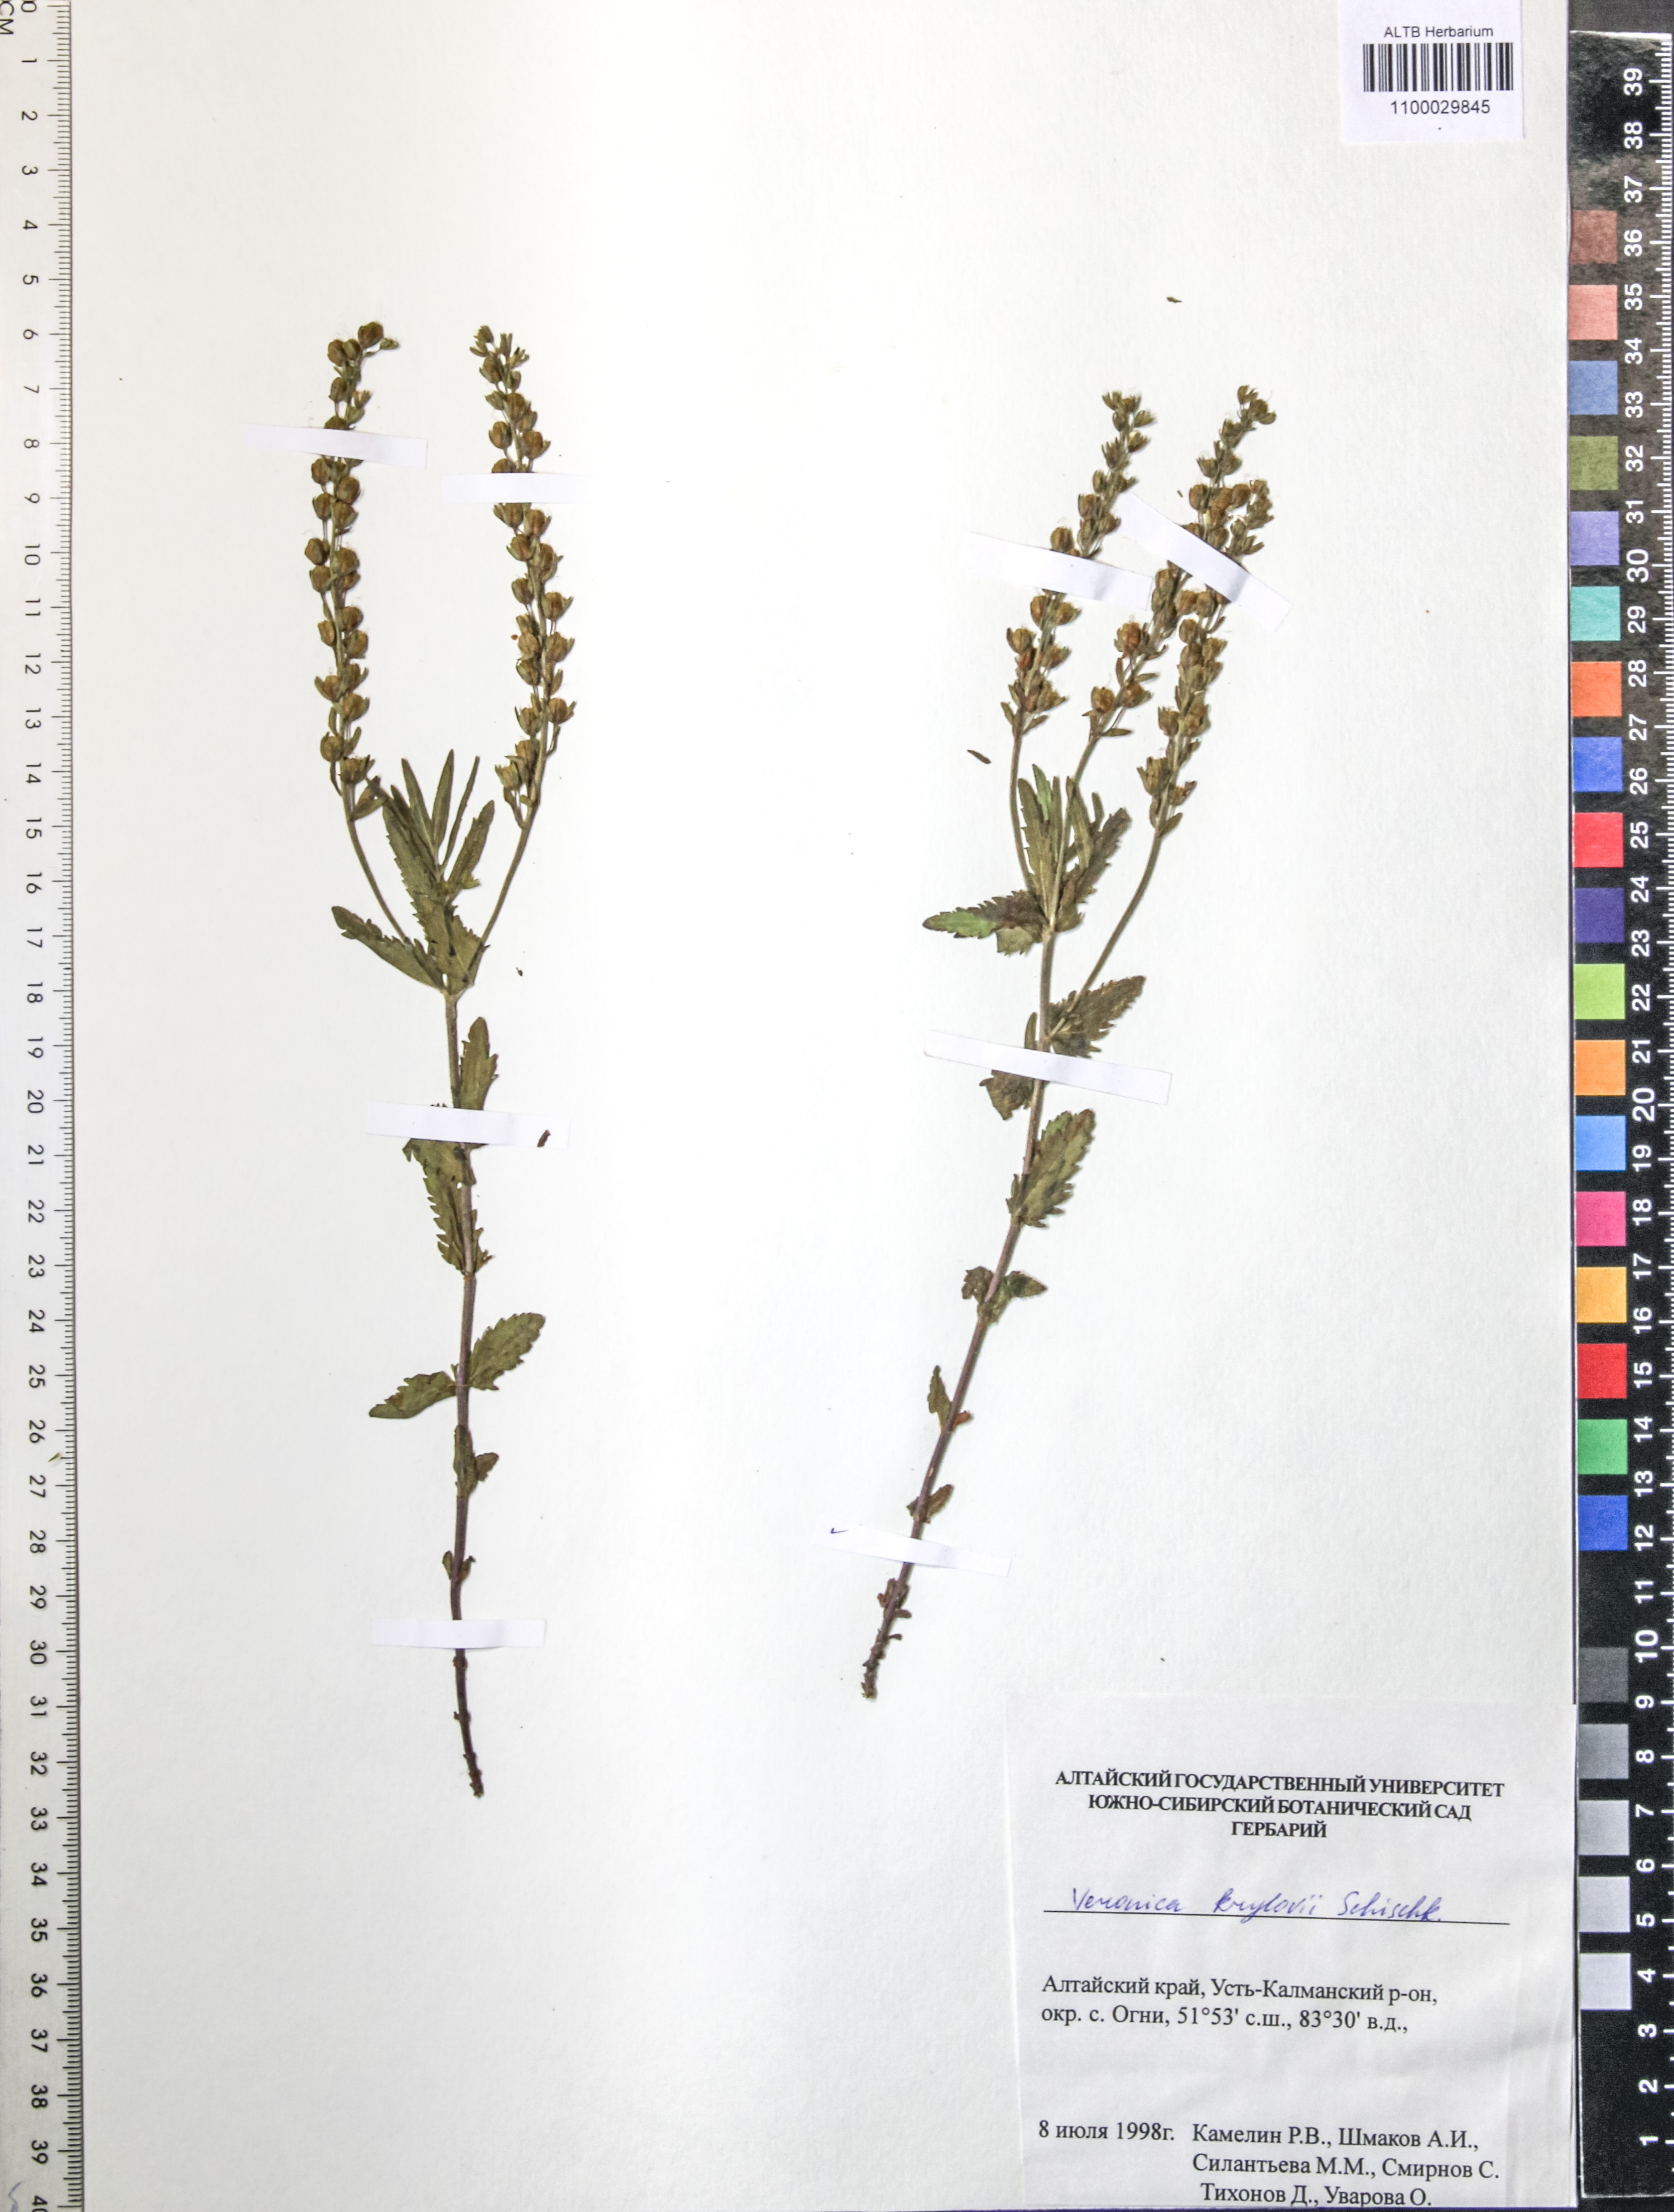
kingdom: Plantae
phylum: Tracheophyta
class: Magnoliopsida
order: Lamiales
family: Plantaginaceae
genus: Veronica
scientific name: Veronica krylovii
